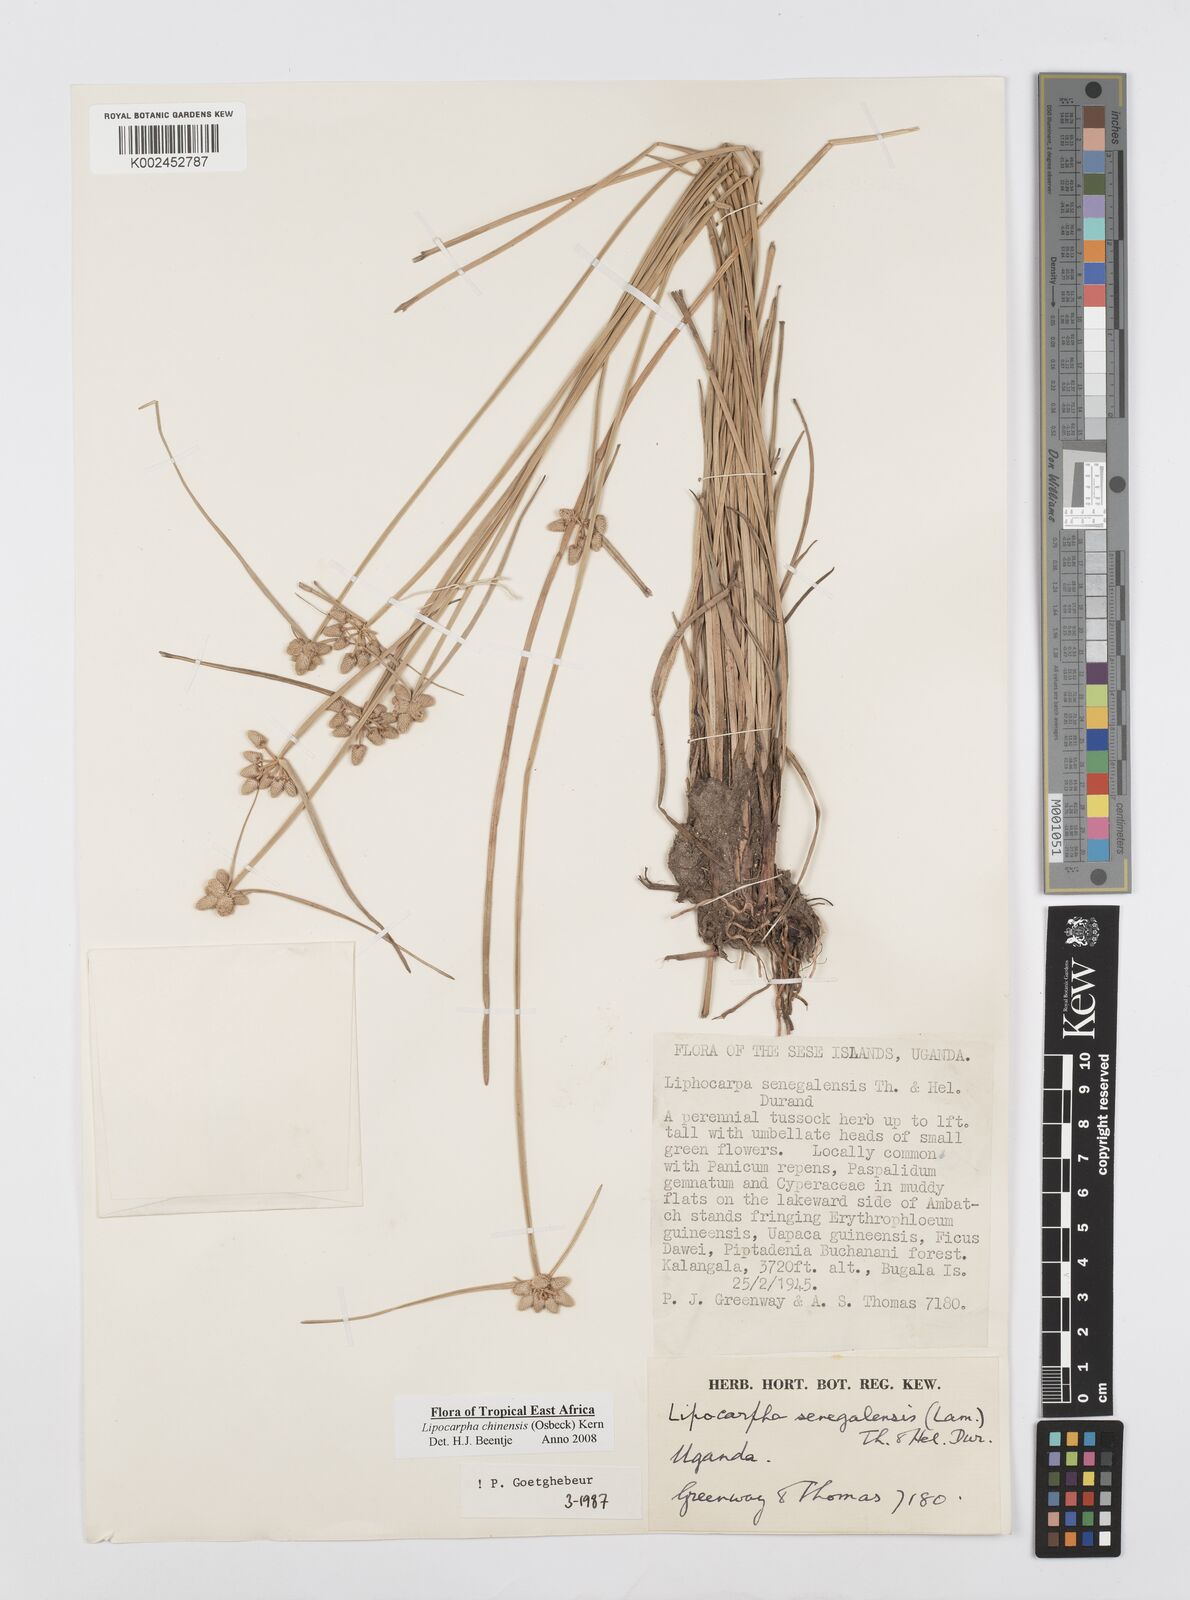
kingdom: Plantae
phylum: Tracheophyta
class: Liliopsida
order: Poales
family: Cyperaceae
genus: Cyperus
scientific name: Cyperus albescens
